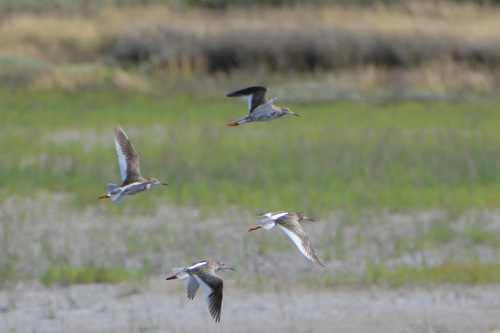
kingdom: Animalia
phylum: Chordata
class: Aves
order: Charadriiformes
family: Scolopacidae
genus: Tringa
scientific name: Tringa totanus
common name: Common redshank
